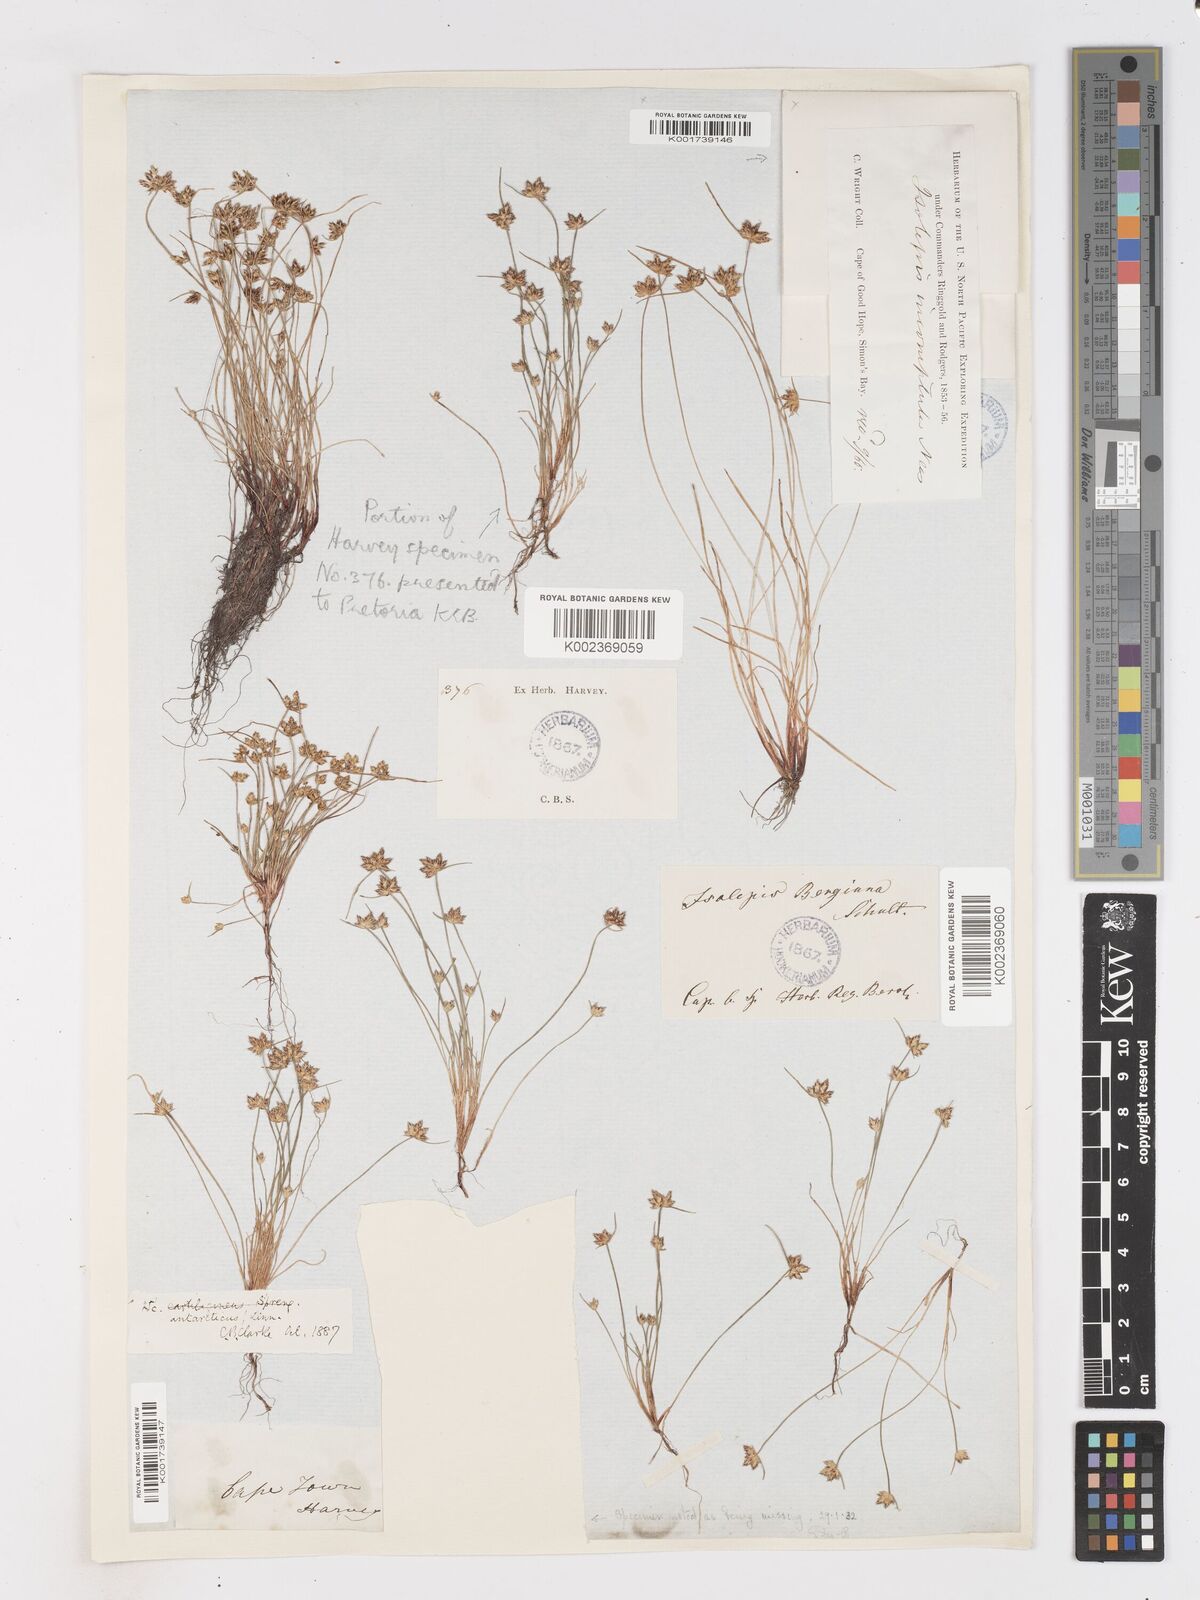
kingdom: Plantae
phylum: Tracheophyta
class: Liliopsida
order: Poales
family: Cyperaceae
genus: Isolepis
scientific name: Isolepis diabolica
